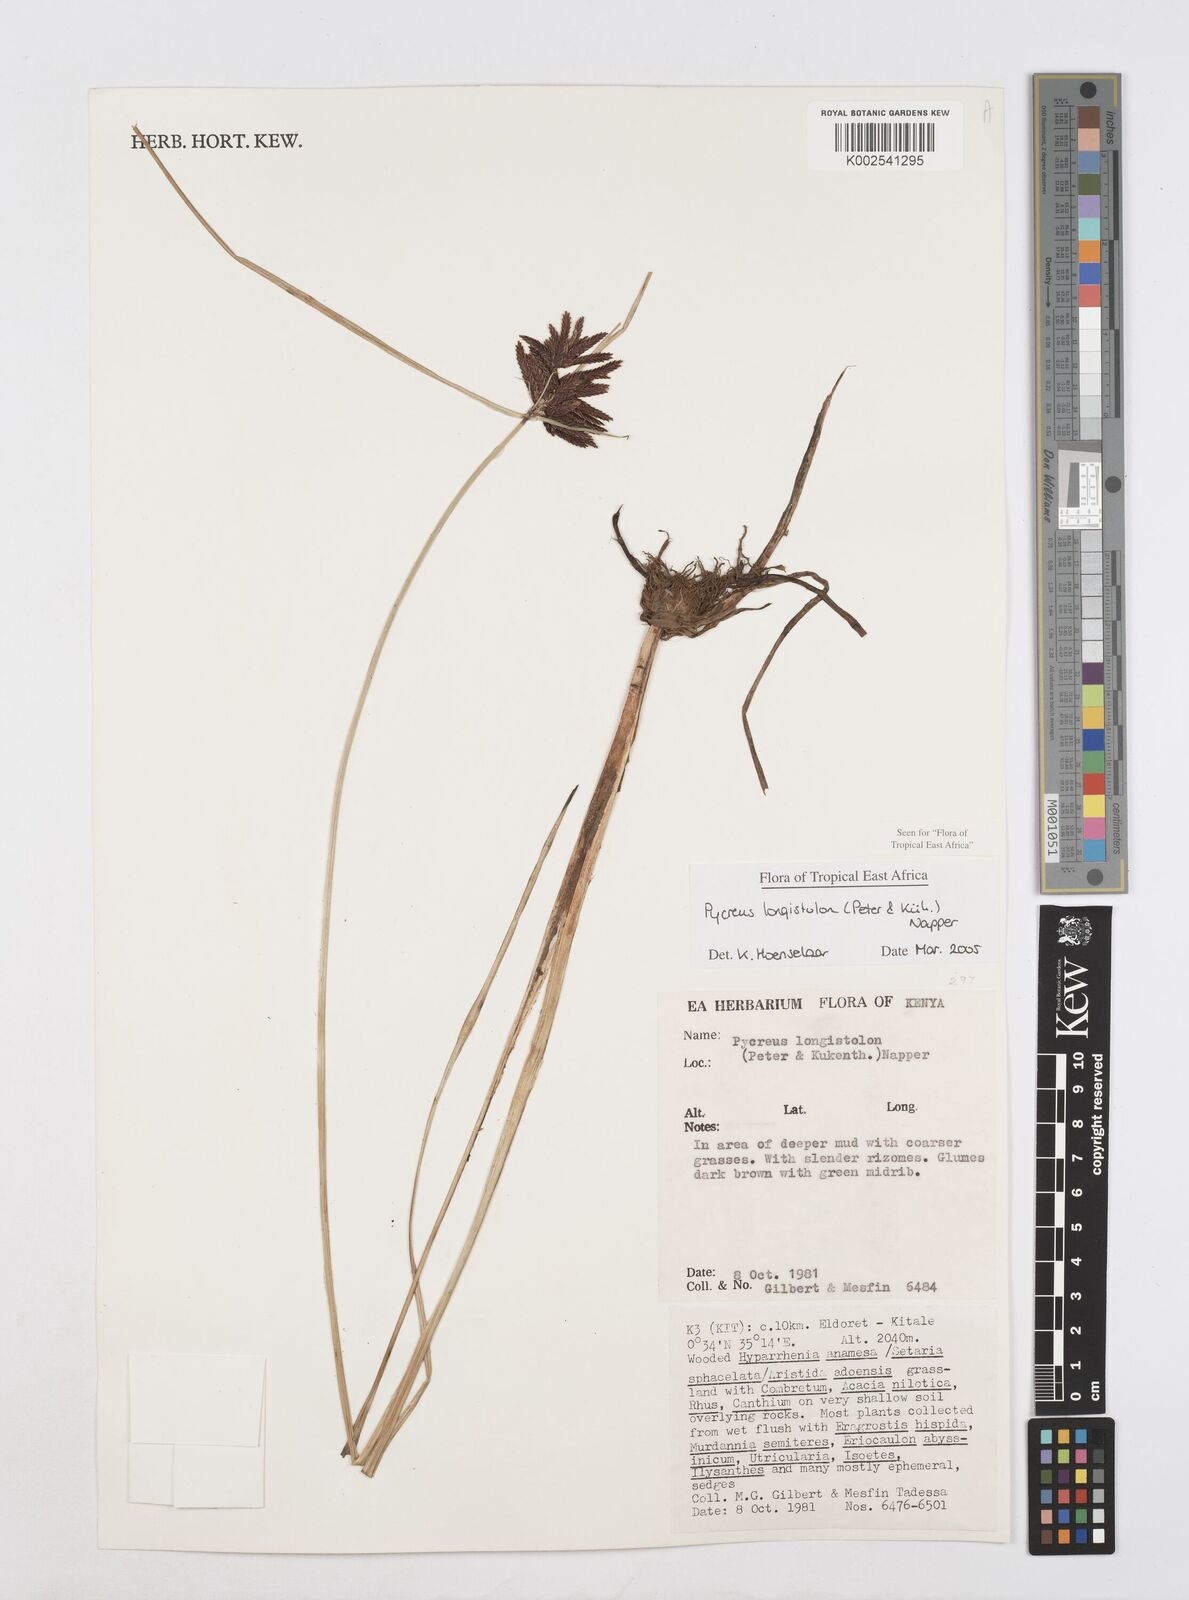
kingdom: Plantae
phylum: Tracheophyta
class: Liliopsida
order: Poales
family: Cyperaceae
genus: Cyperus
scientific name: Cyperus chrysanthus
